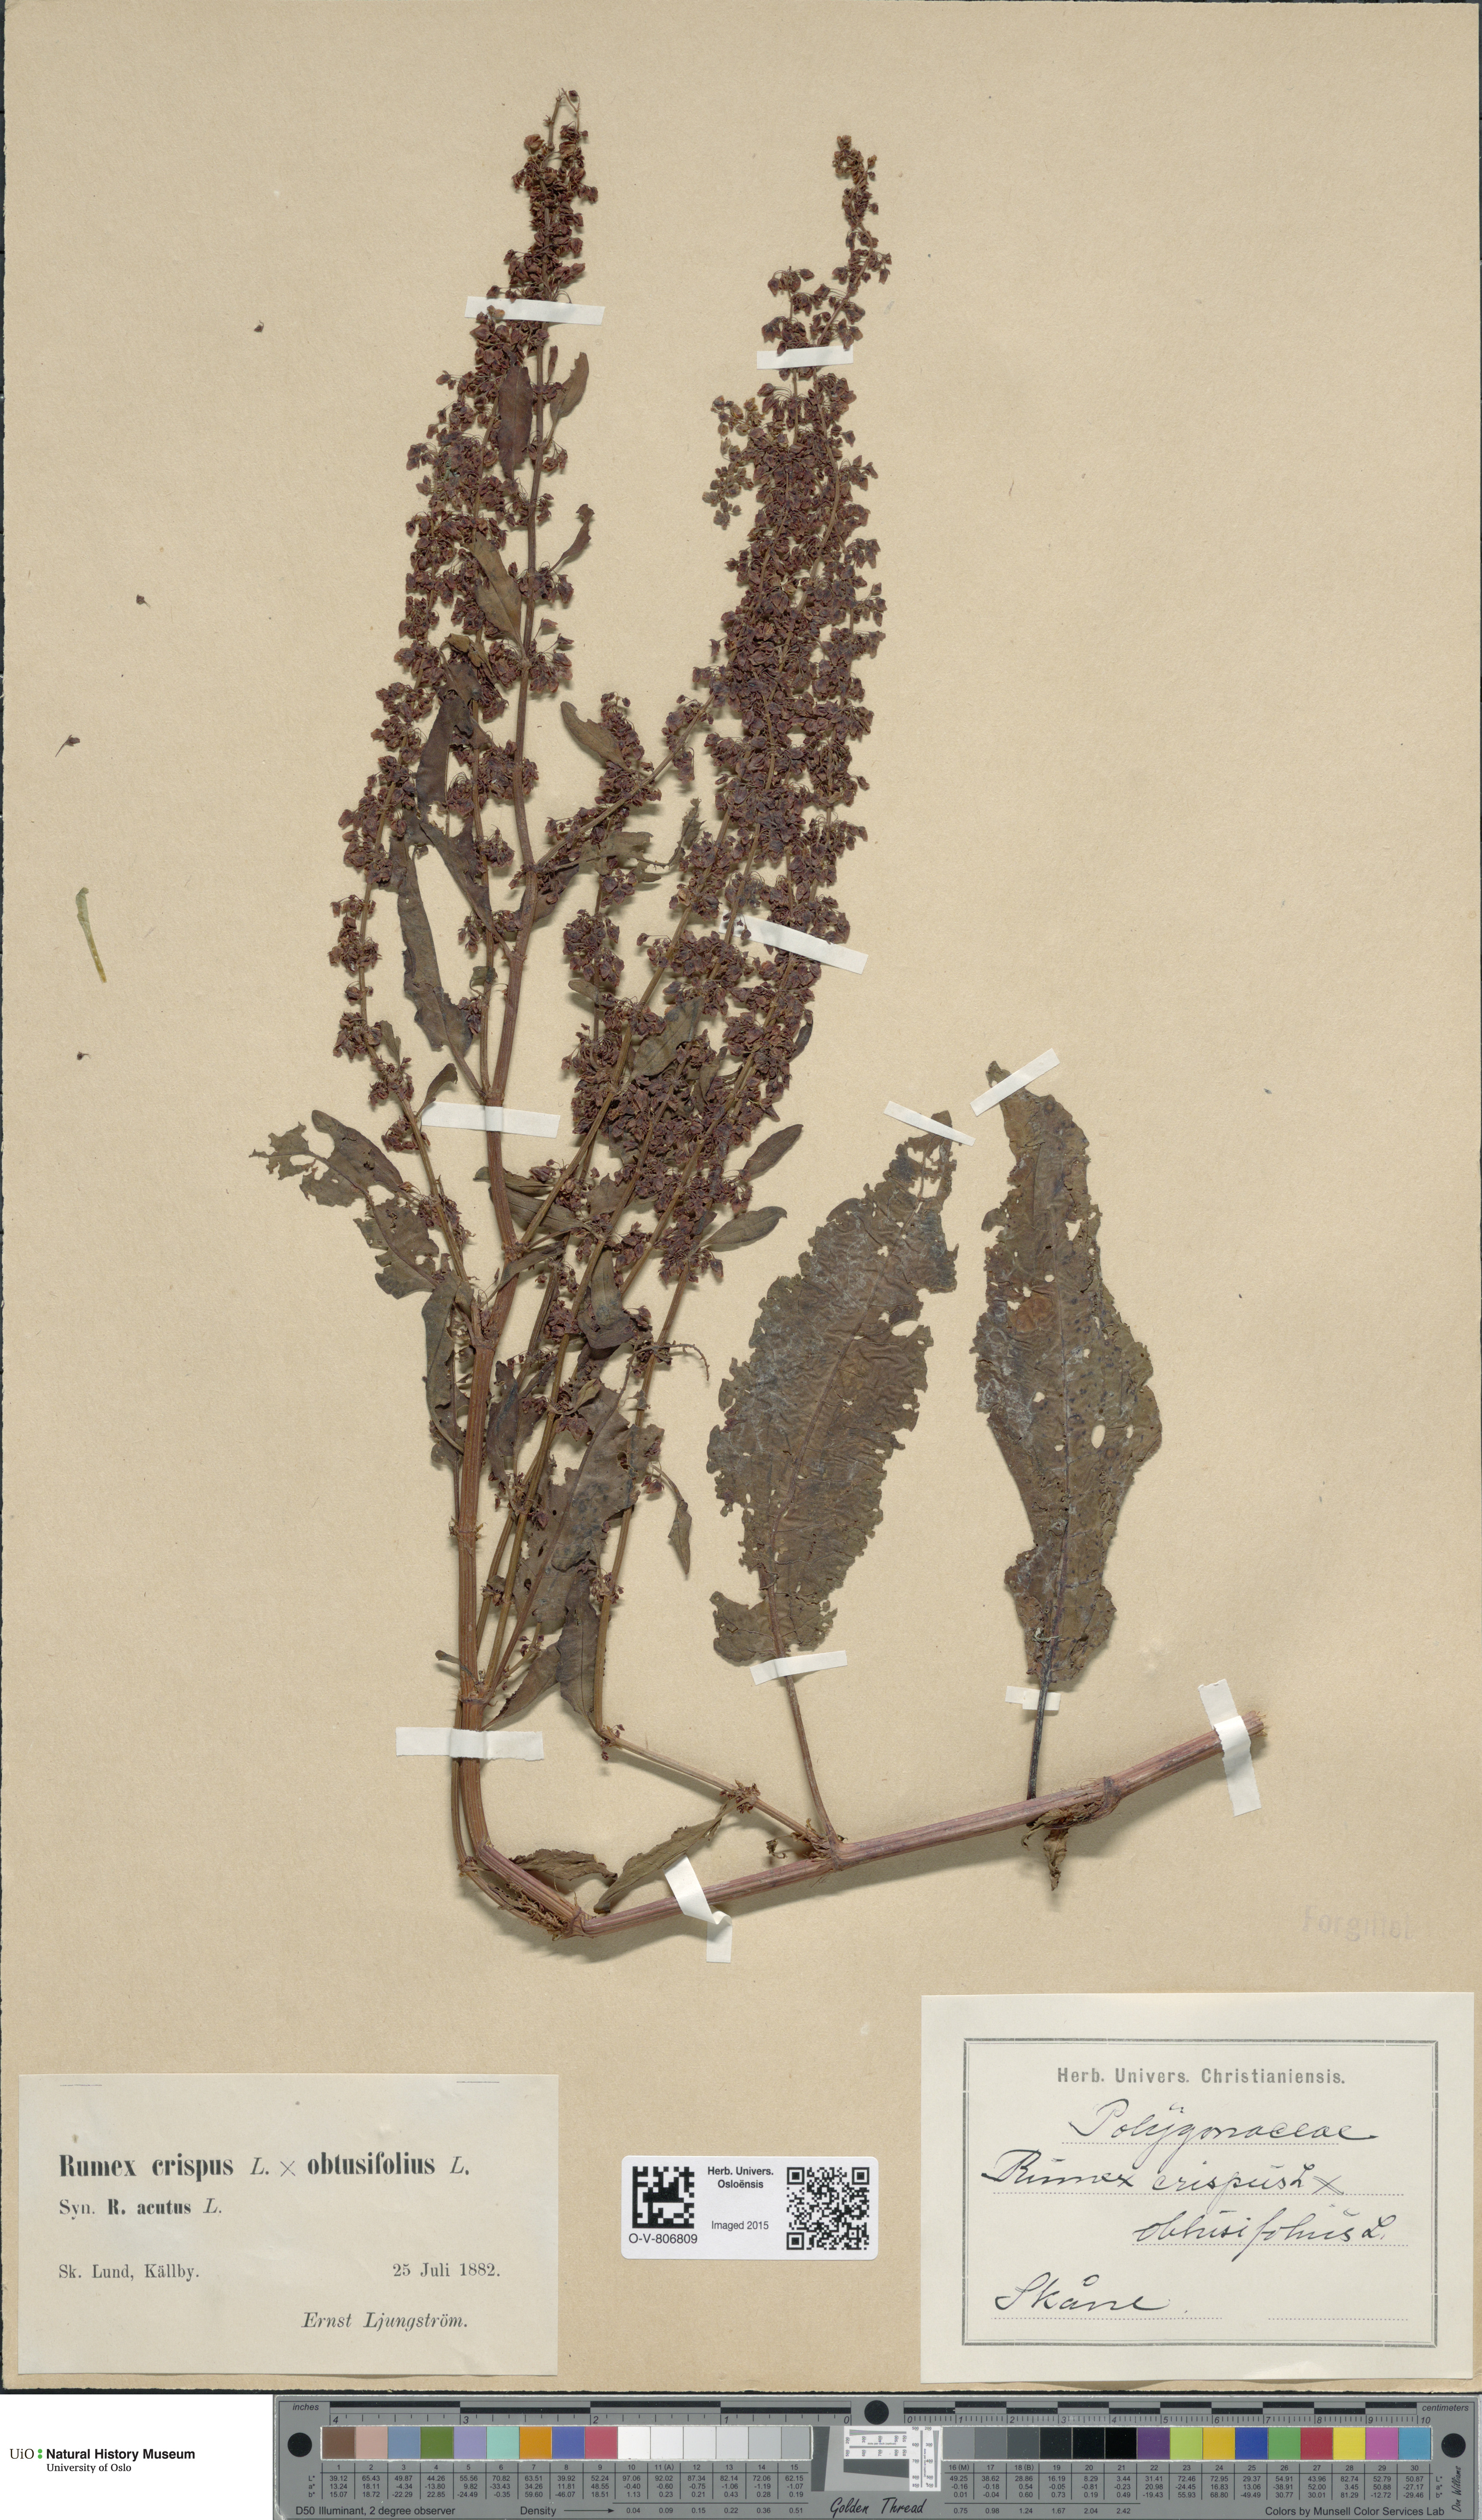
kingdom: Plantae
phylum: Tracheophyta
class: Magnoliopsida
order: Caryophyllales
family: Polygonaceae
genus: Rumex
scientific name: Rumex
